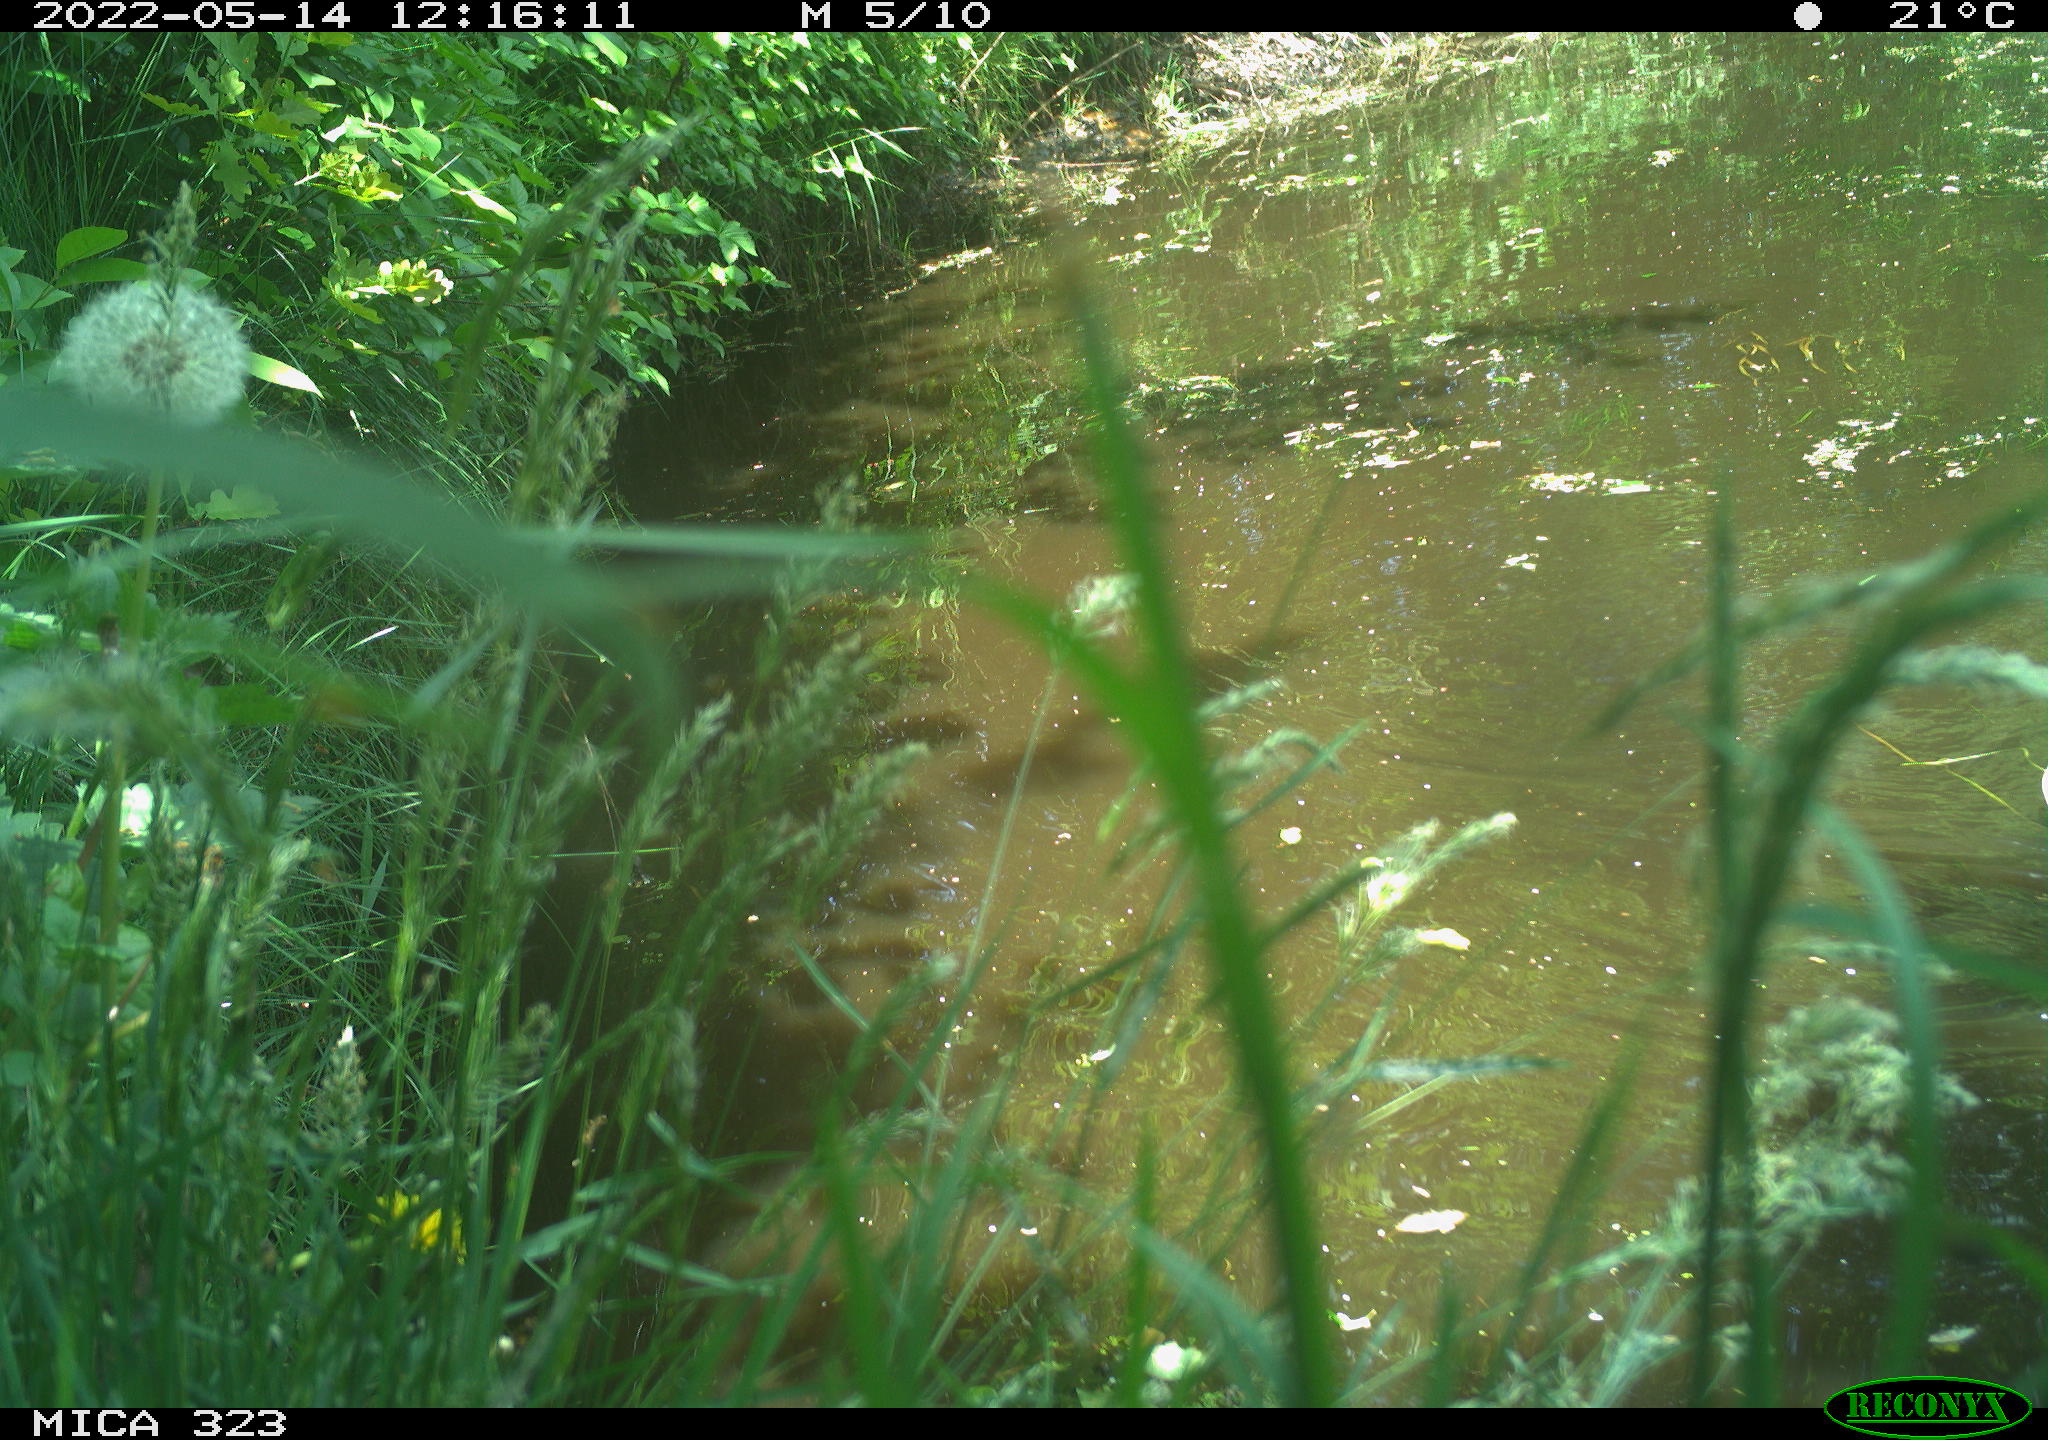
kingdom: Animalia
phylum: Chordata
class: Aves
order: Anseriformes
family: Anatidae
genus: Anas
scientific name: Anas platyrhynchos
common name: Mallard
